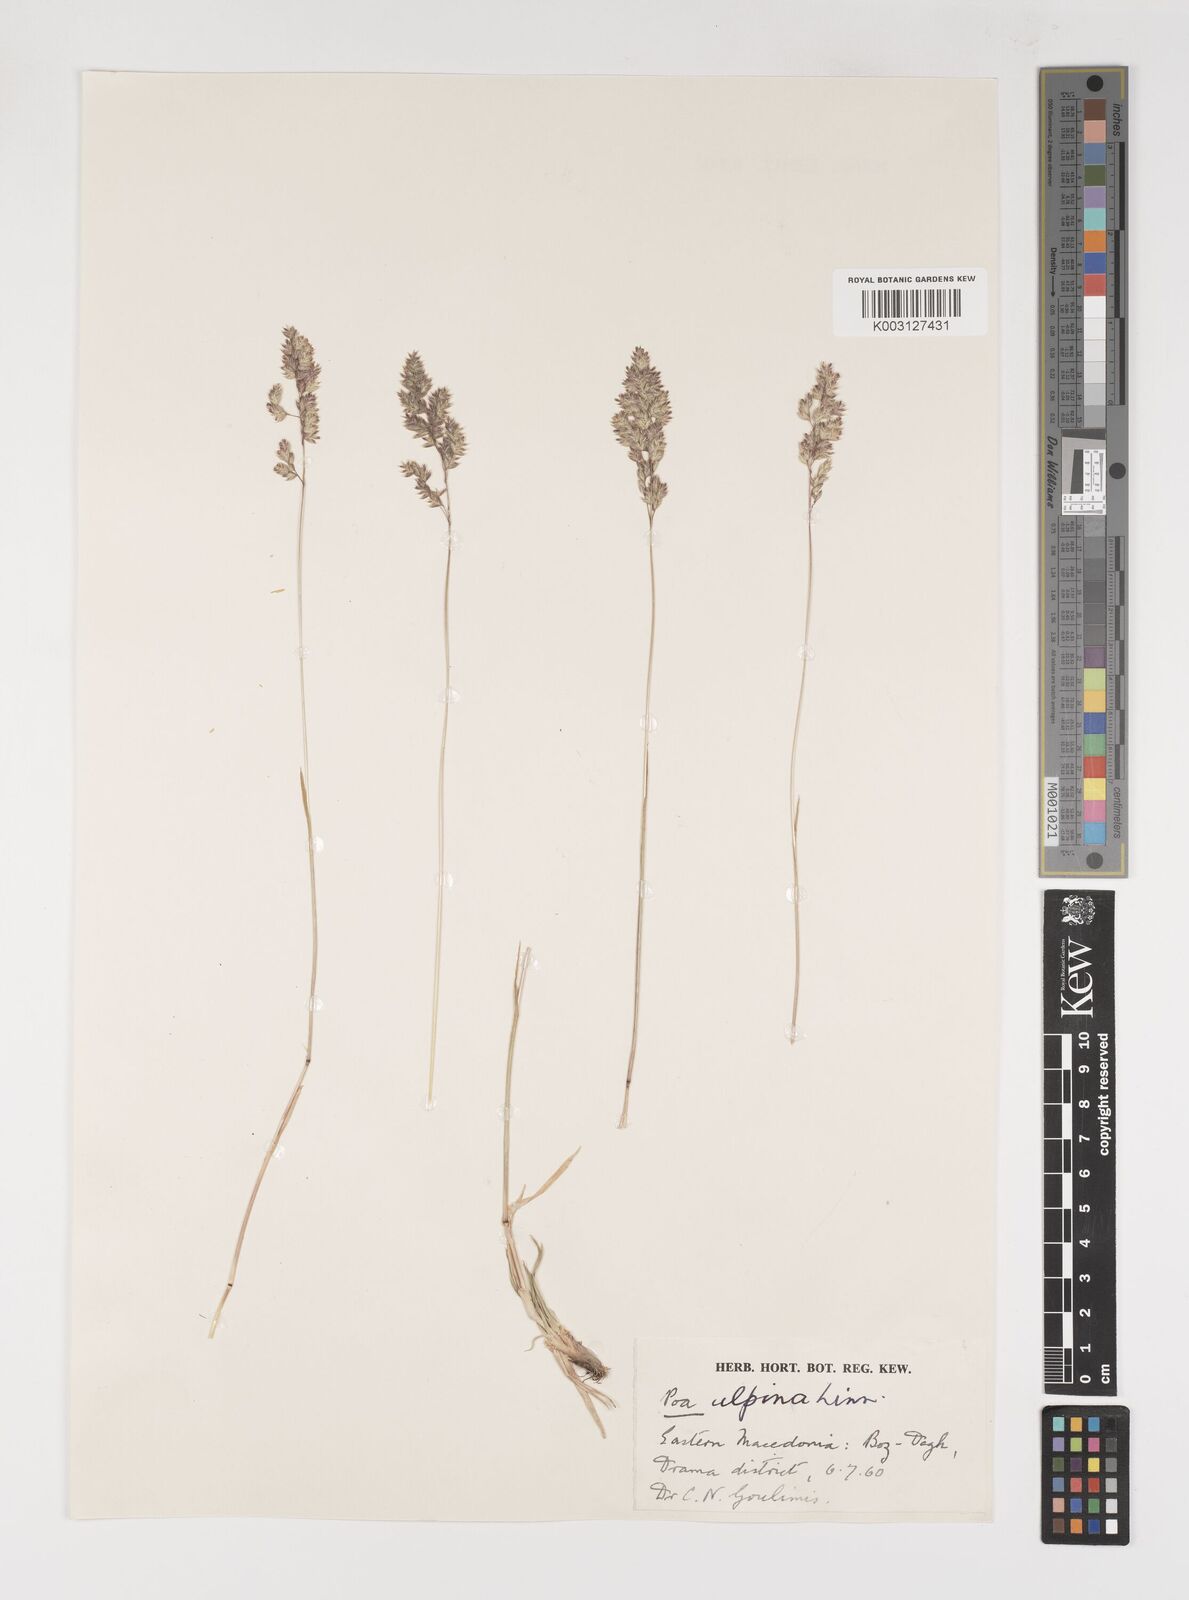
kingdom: Plantae
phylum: Tracheophyta
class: Liliopsida
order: Poales
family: Poaceae
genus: Poa
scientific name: Poa alpina
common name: Alpine bluegrass
